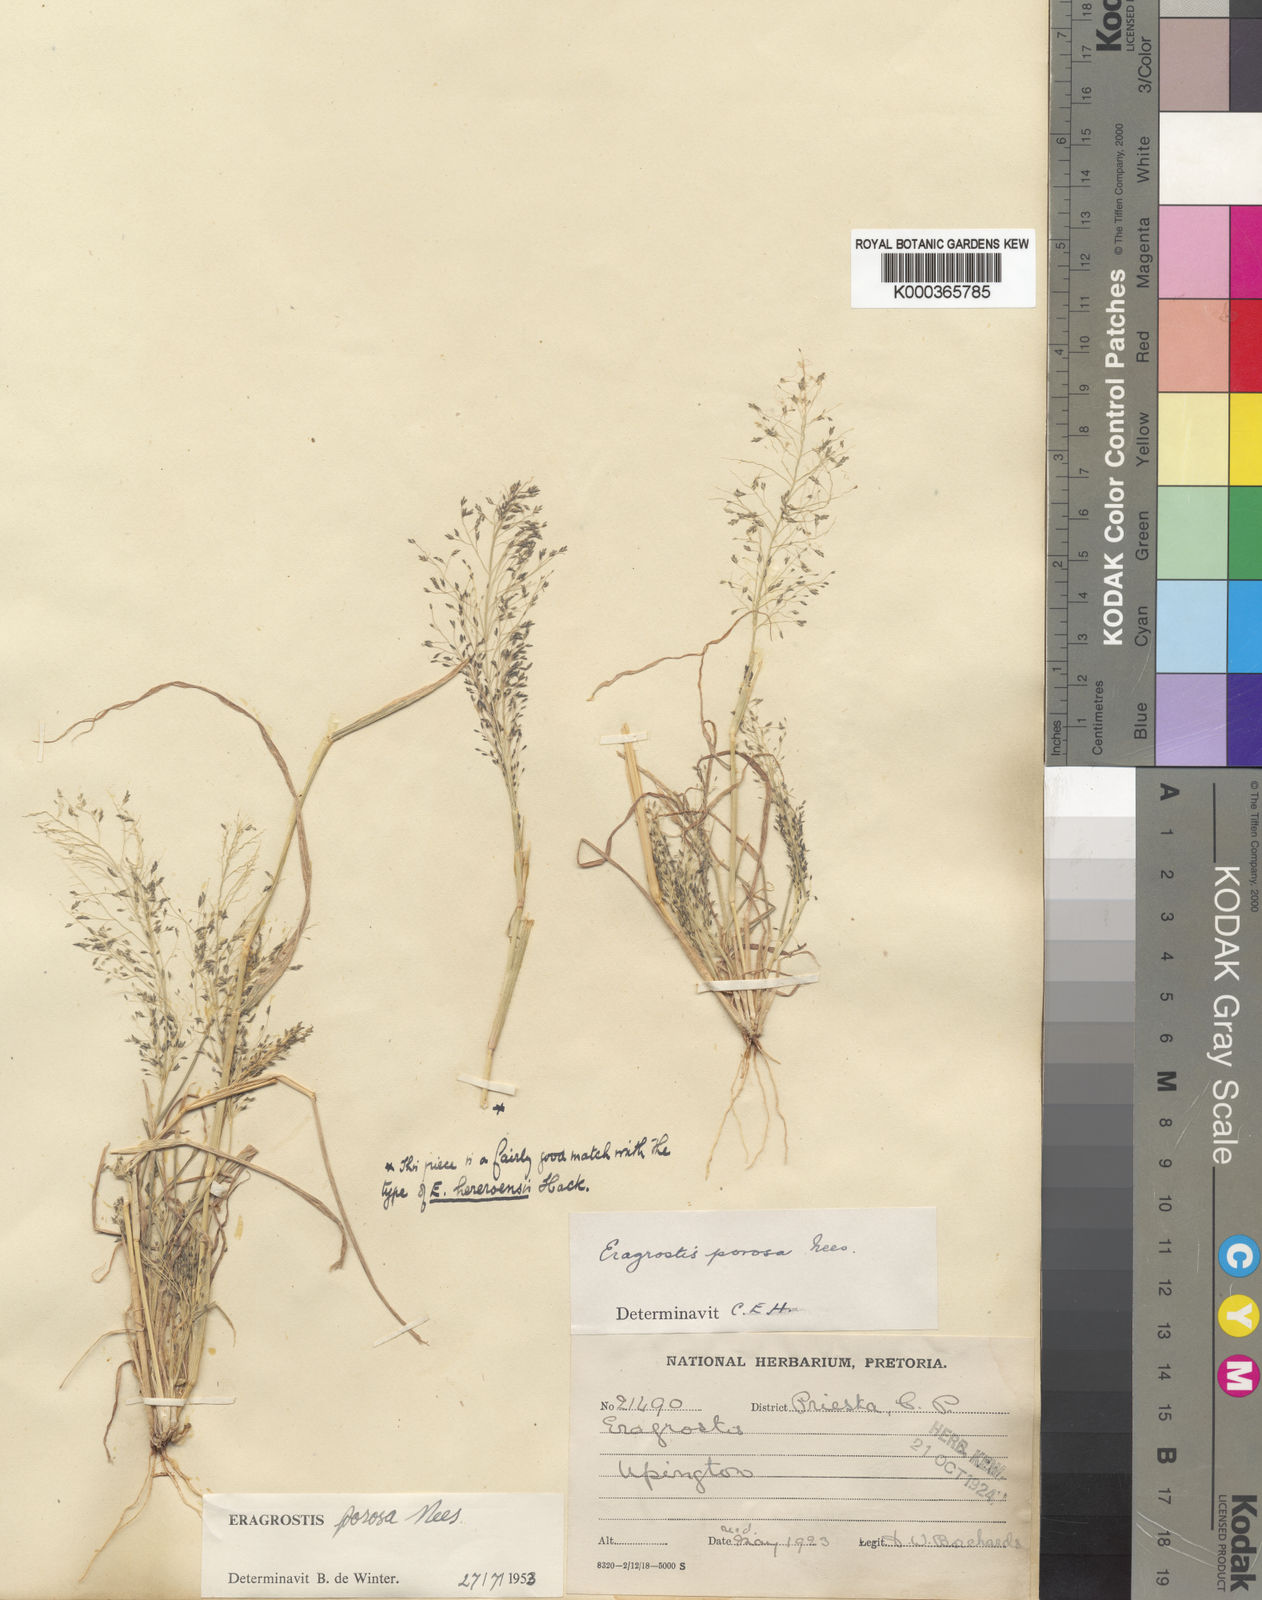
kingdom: Plantae
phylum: Tracheophyta
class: Liliopsida
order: Poales
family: Poaceae
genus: Eragrostis
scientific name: Eragrostis porosa
